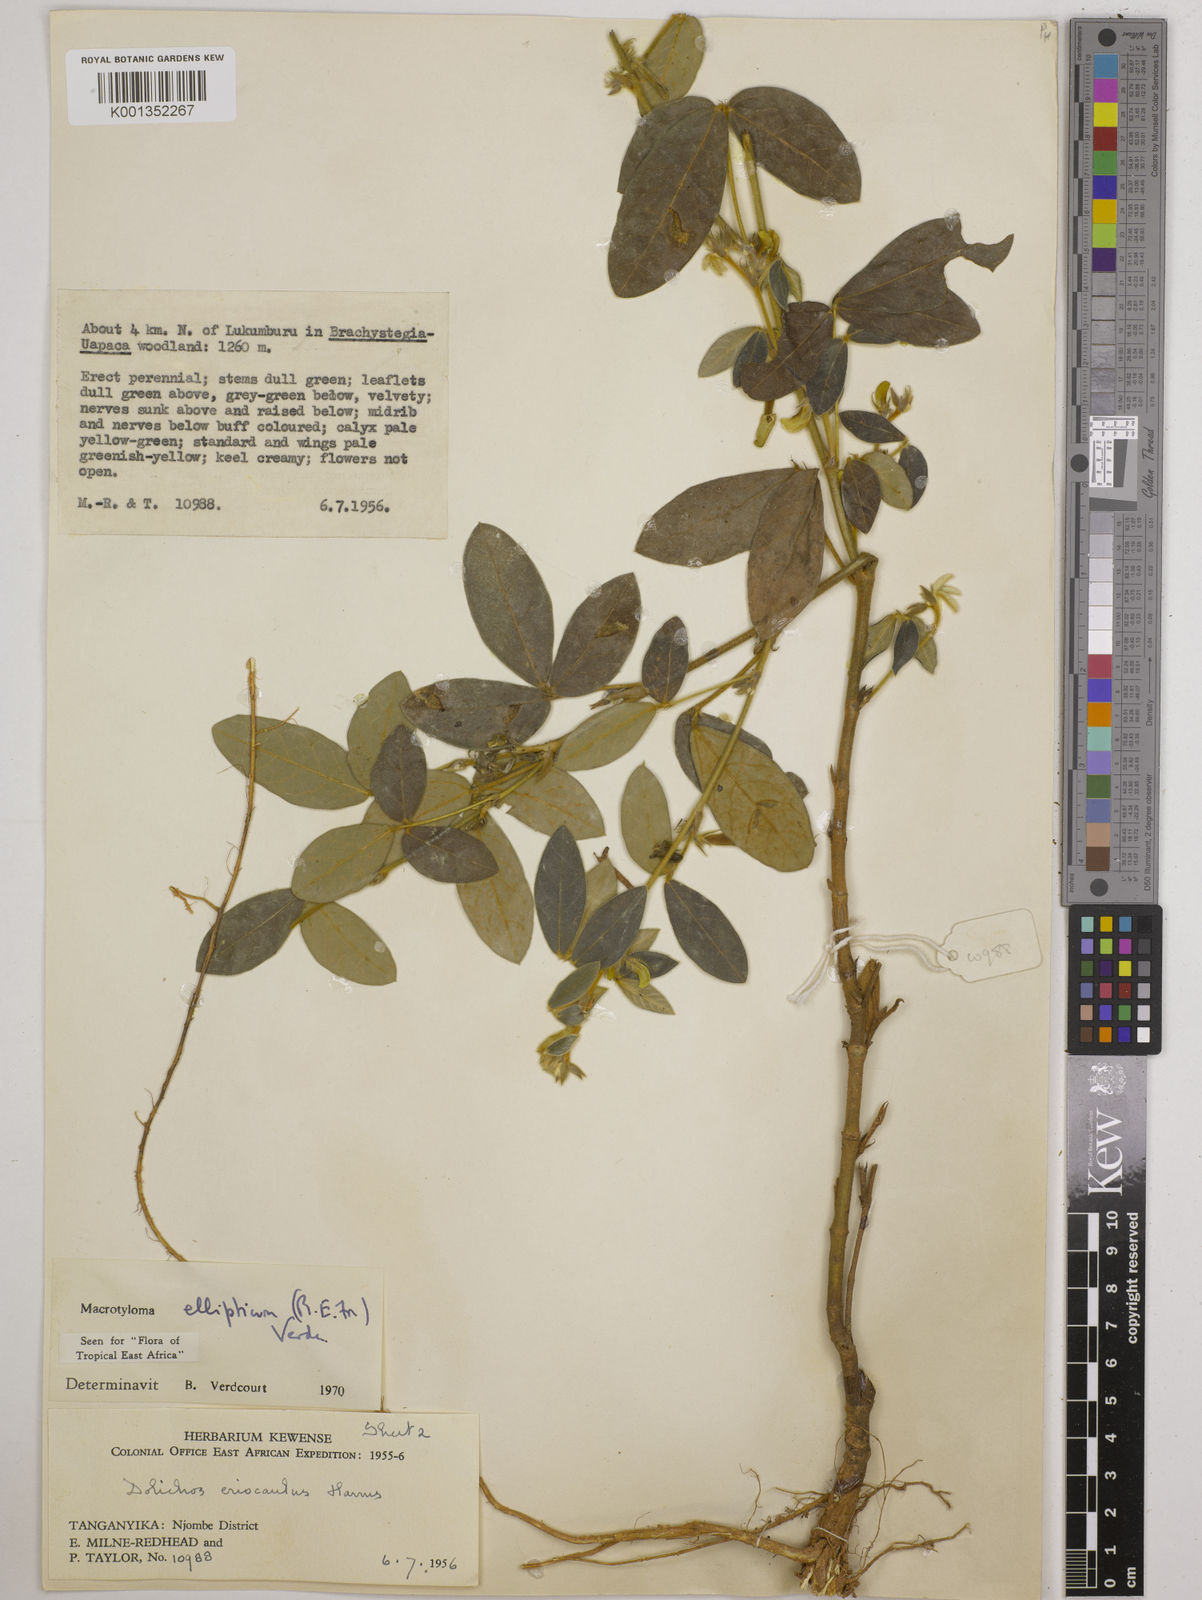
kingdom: Plantae
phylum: Tracheophyta
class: Magnoliopsida
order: Fabales
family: Fabaceae
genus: Macrotyloma
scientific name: Macrotyloma ellipticum
